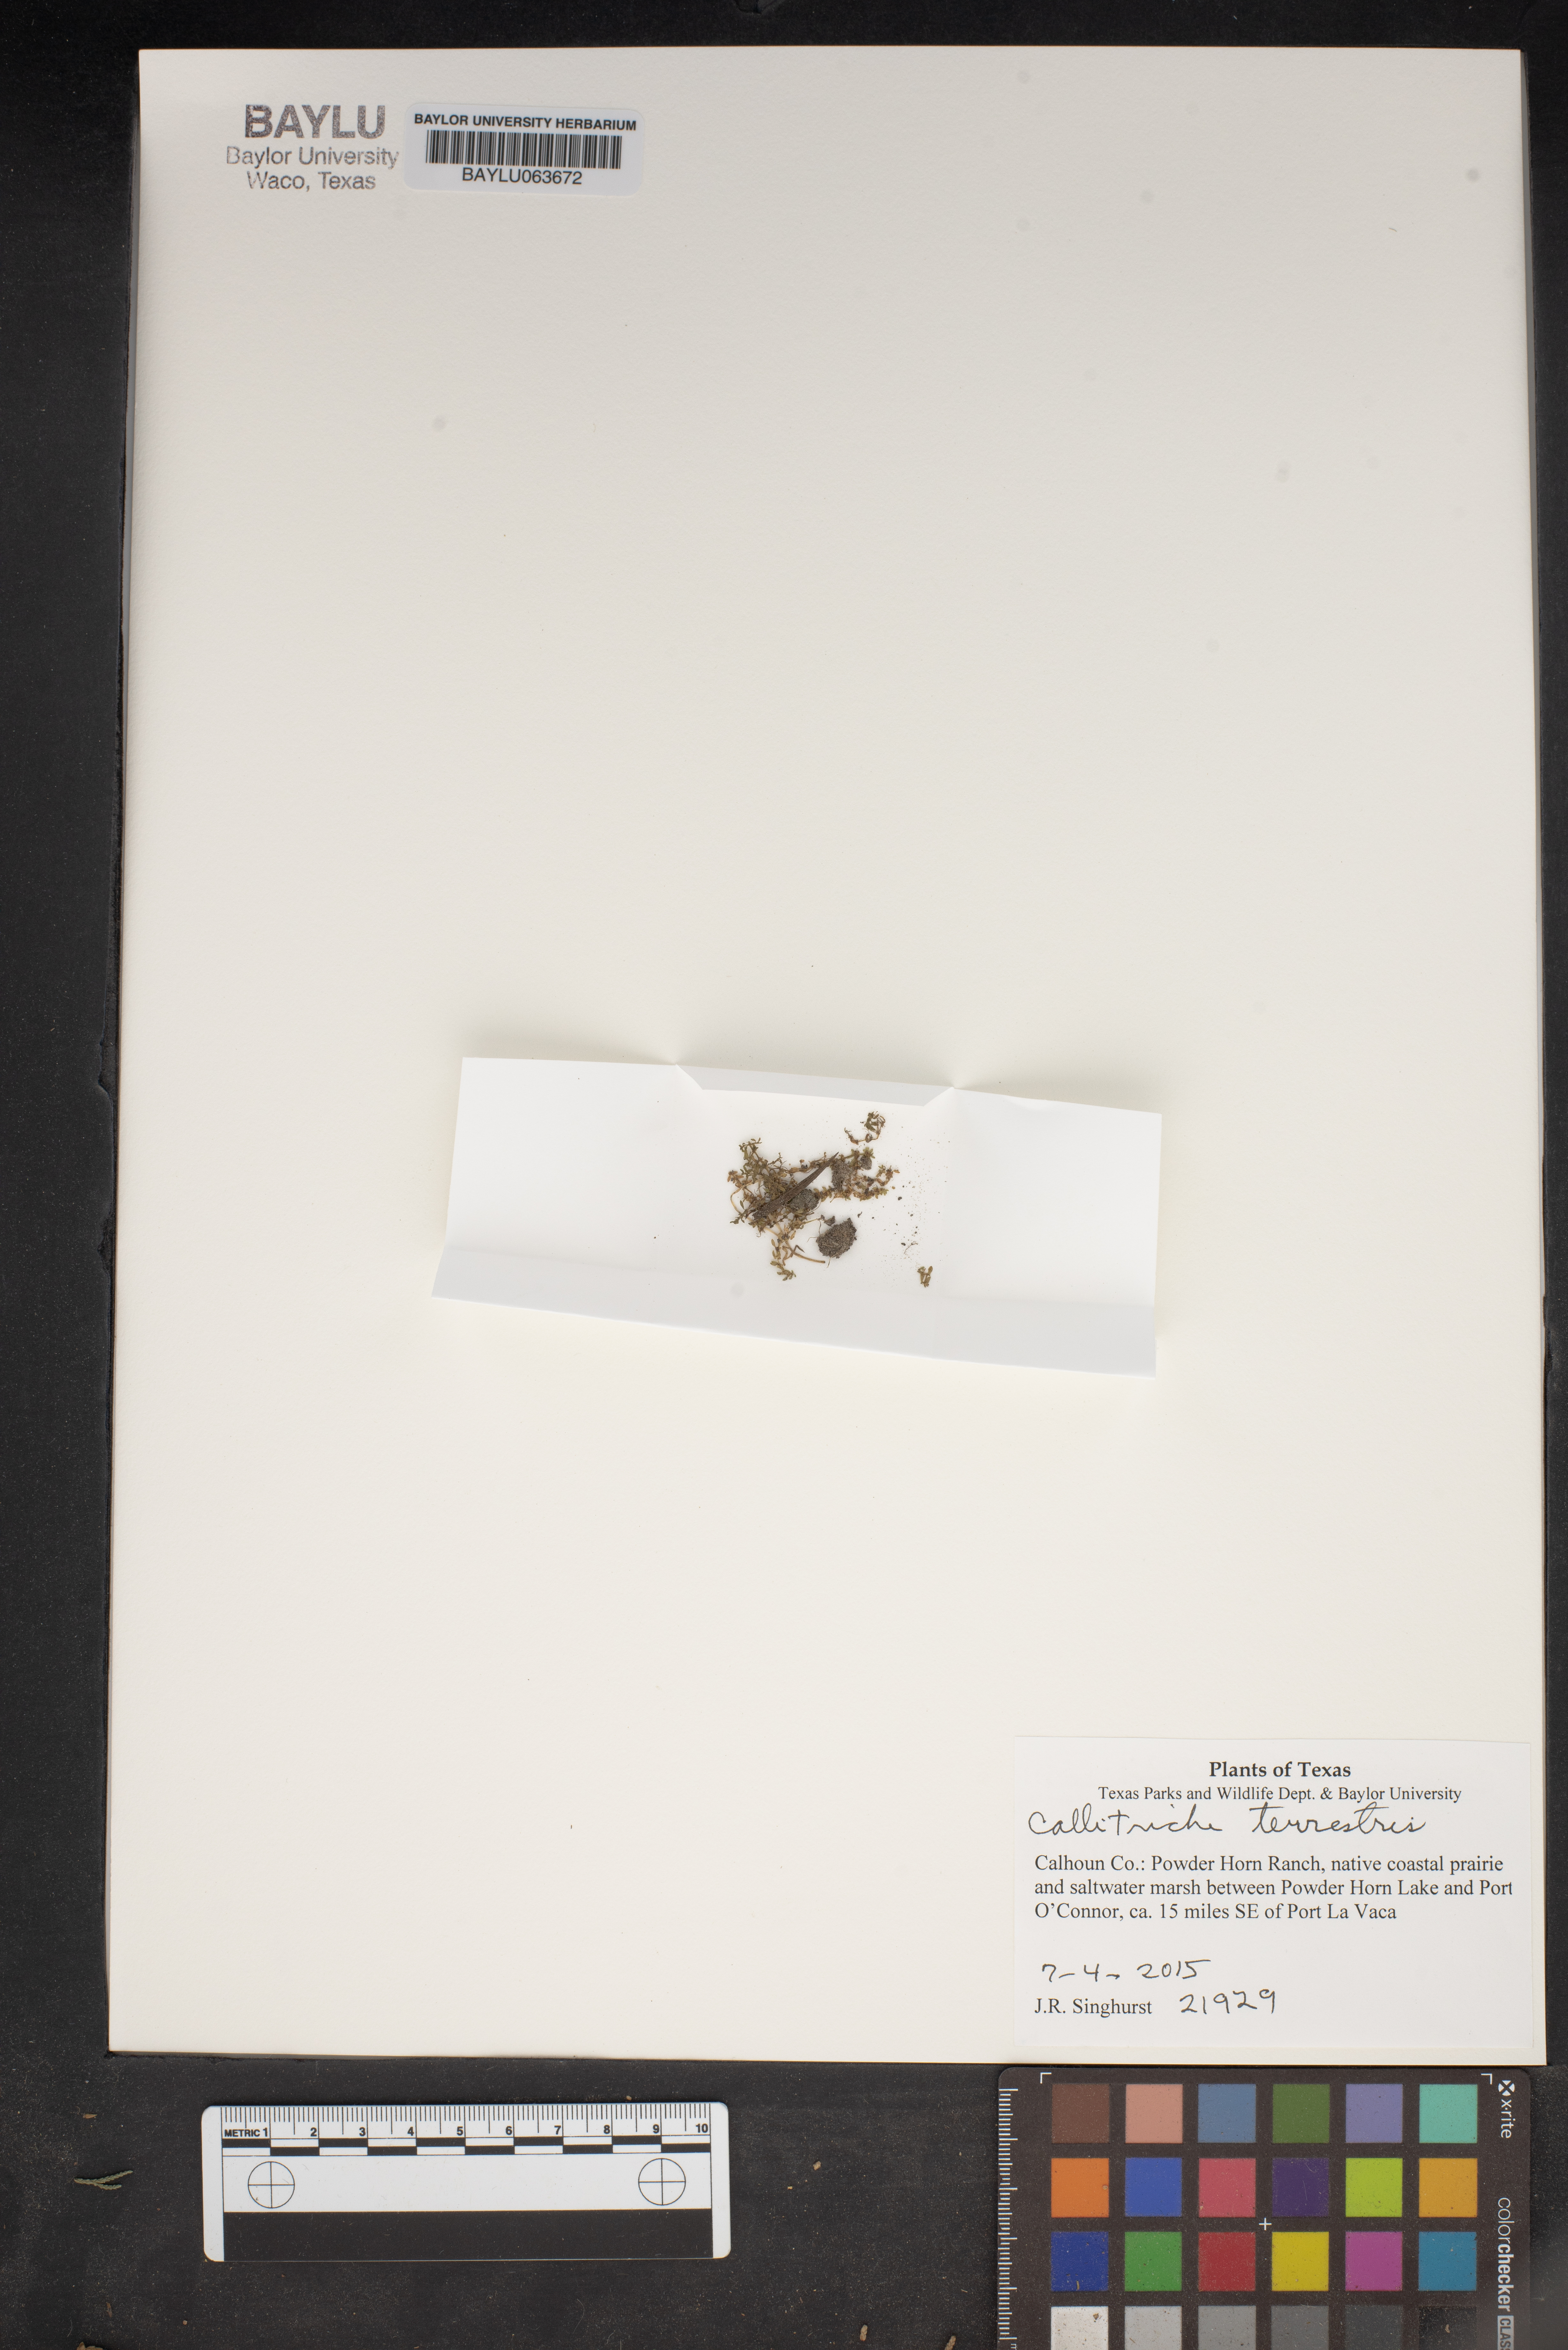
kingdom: Plantae
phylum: Tracheophyta
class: Magnoliopsida
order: Lamiales
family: Plantaginaceae
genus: Callitriche
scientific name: Callitriche terrestris
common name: Terrestrial water-starwort
